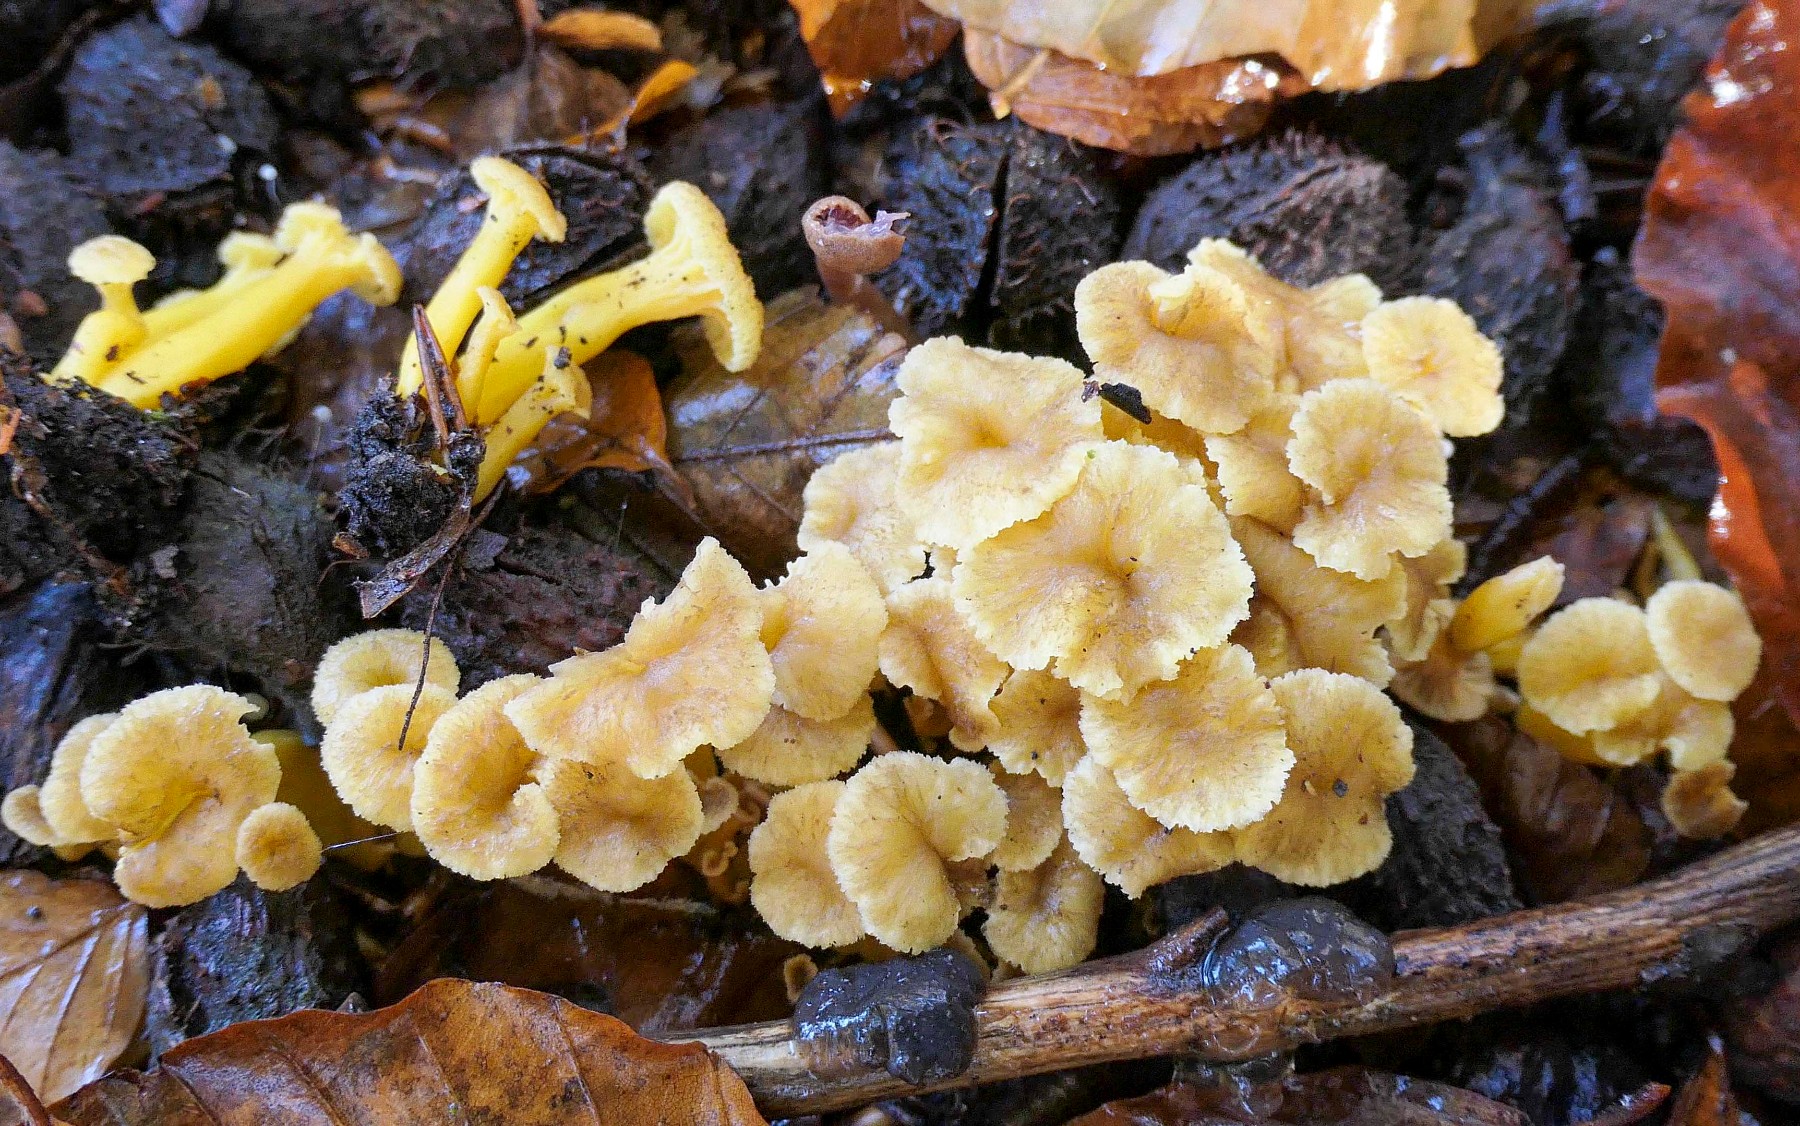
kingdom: Fungi
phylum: Basidiomycota
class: Agaricomycetes
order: Cantharellales
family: Hydnaceae
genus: Craterellus
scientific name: Craterellus tubaeformis
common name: tragt-kantarel
